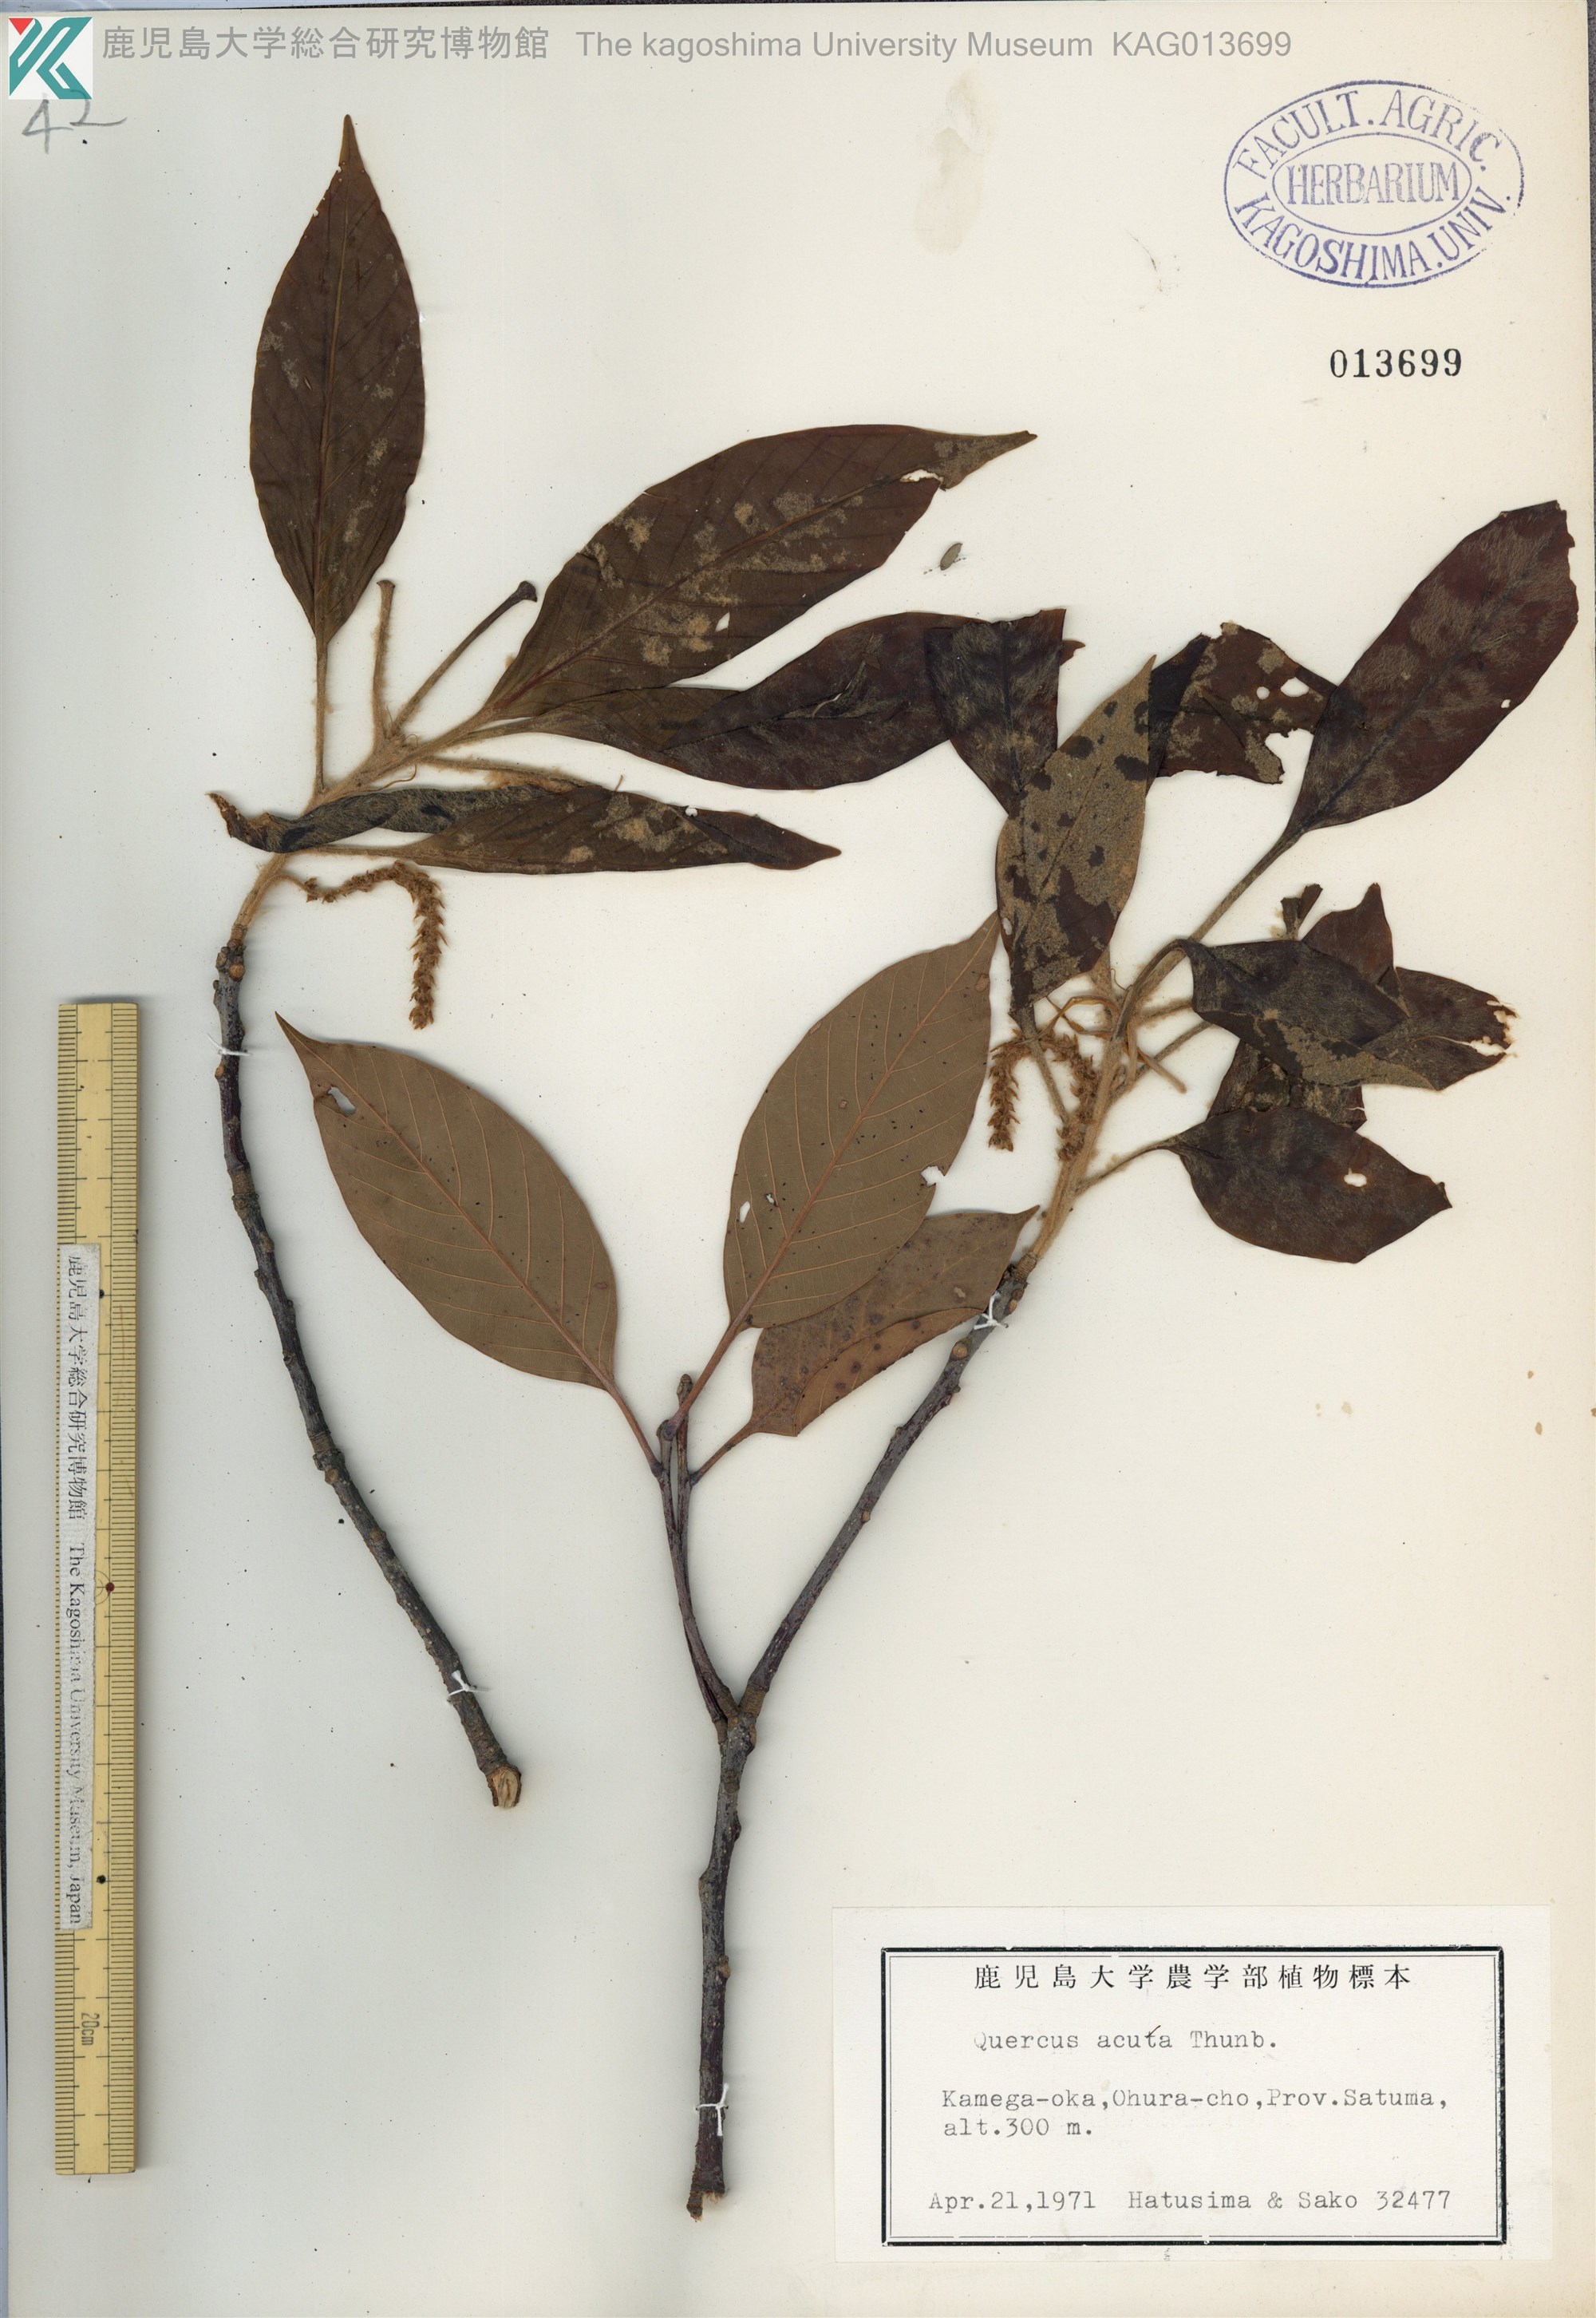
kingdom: Plantae
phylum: Tracheophyta
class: Magnoliopsida
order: Fagales
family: Fagaceae
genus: Quercus
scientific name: Quercus acuta
